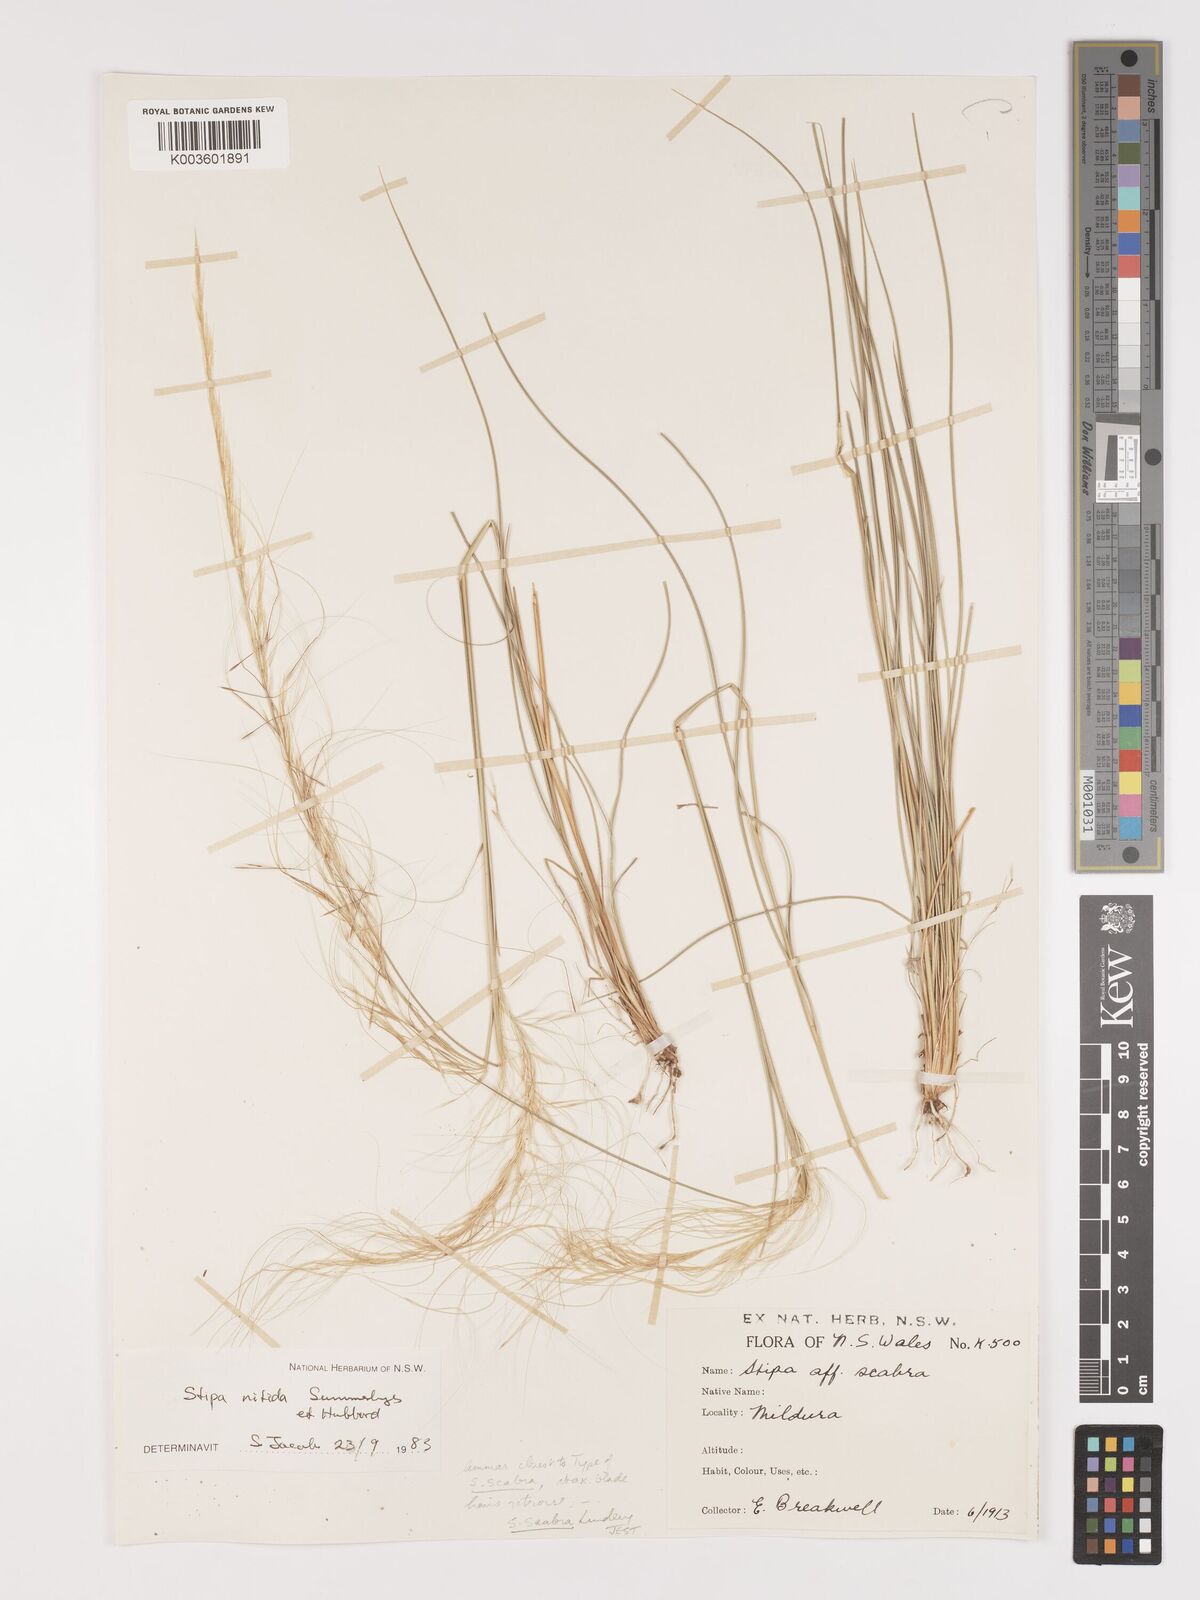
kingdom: Plantae
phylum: Tracheophyta
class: Liliopsida
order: Poales
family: Poaceae
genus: Austrostipa
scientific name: Austrostipa nitida
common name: Balcarra grass
